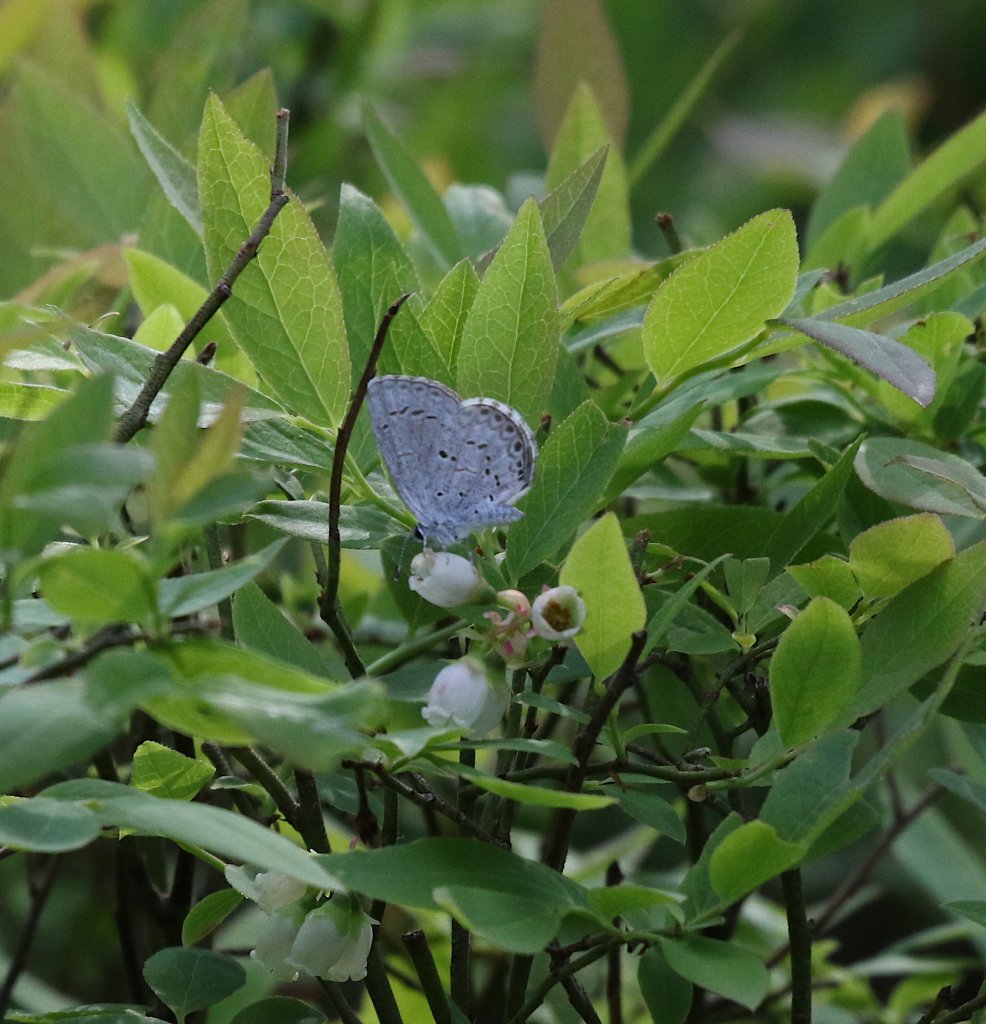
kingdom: Animalia
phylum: Arthropoda
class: Insecta
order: Lepidoptera
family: Lycaenidae
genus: Celastrina
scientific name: Celastrina ladon
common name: Spring Azure
